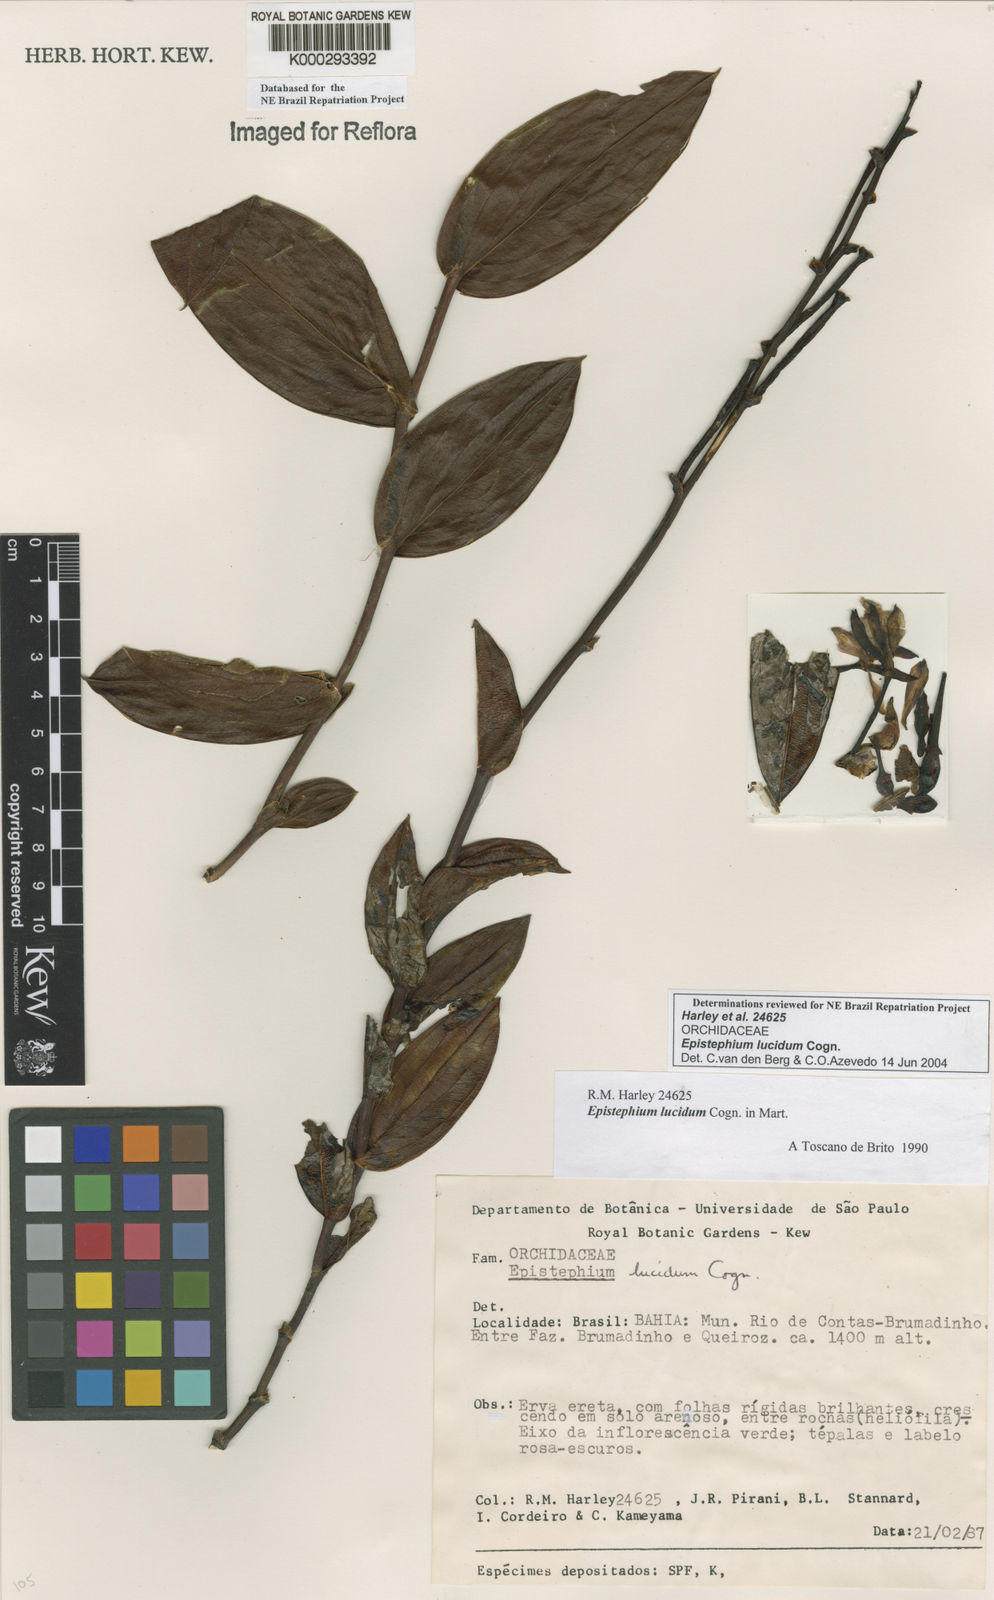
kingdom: Plantae
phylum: Tracheophyta
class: Liliopsida
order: Asparagales
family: Orchidaceae
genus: Epistephium
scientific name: Epistephium williamsii
